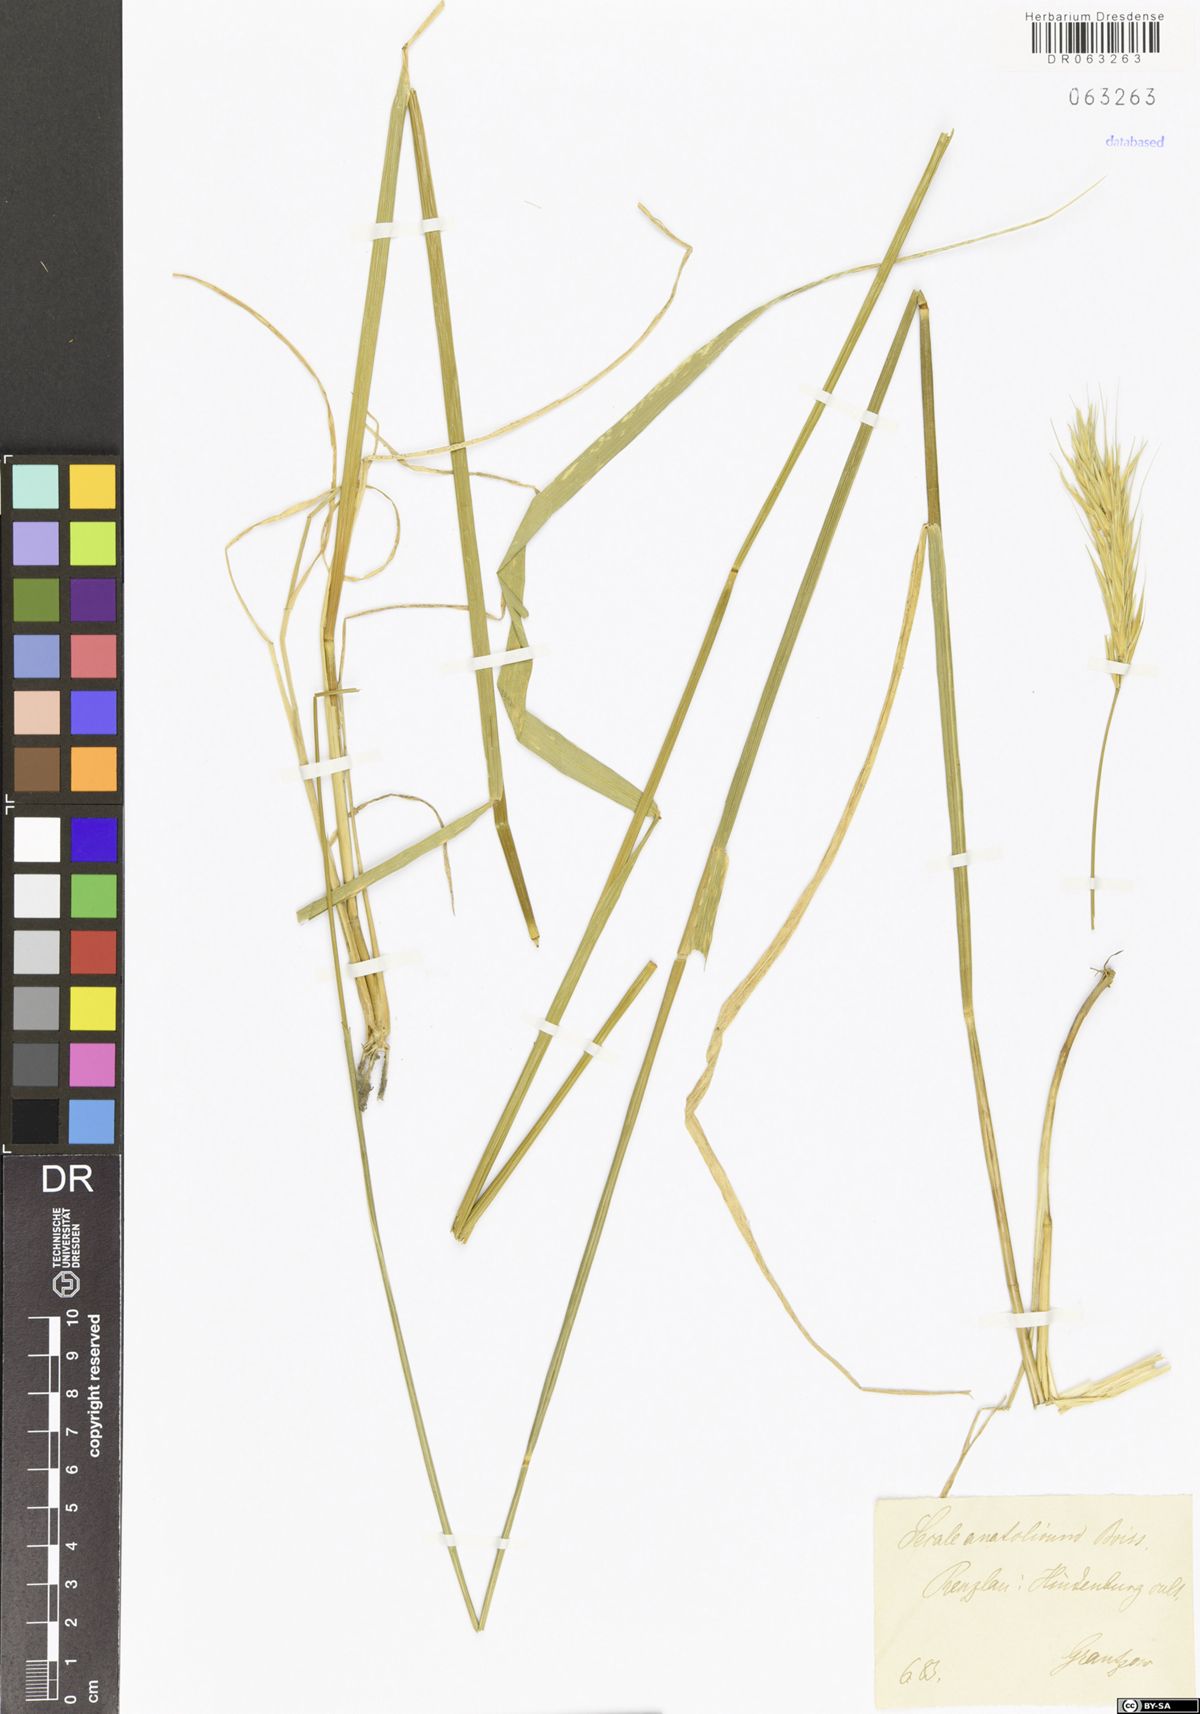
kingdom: Plantae
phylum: Tracheophyta
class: Liliopsida
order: Poales
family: Poaceae
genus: Secale
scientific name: Secale anatolicum
